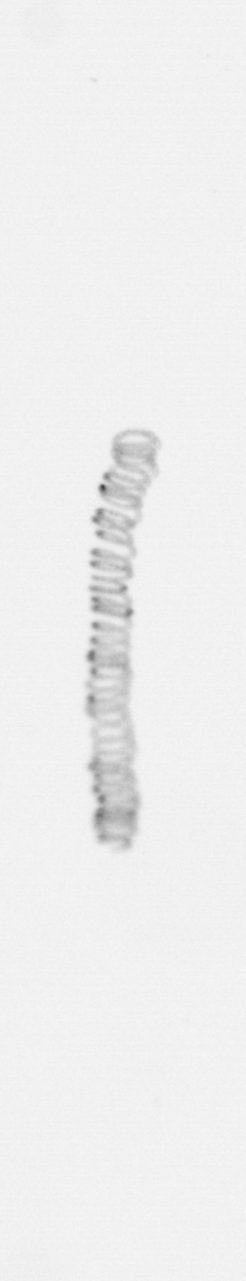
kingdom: Chromista
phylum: Ochrophyta
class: Bacillariophyceae
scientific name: Bacillariophyceae
